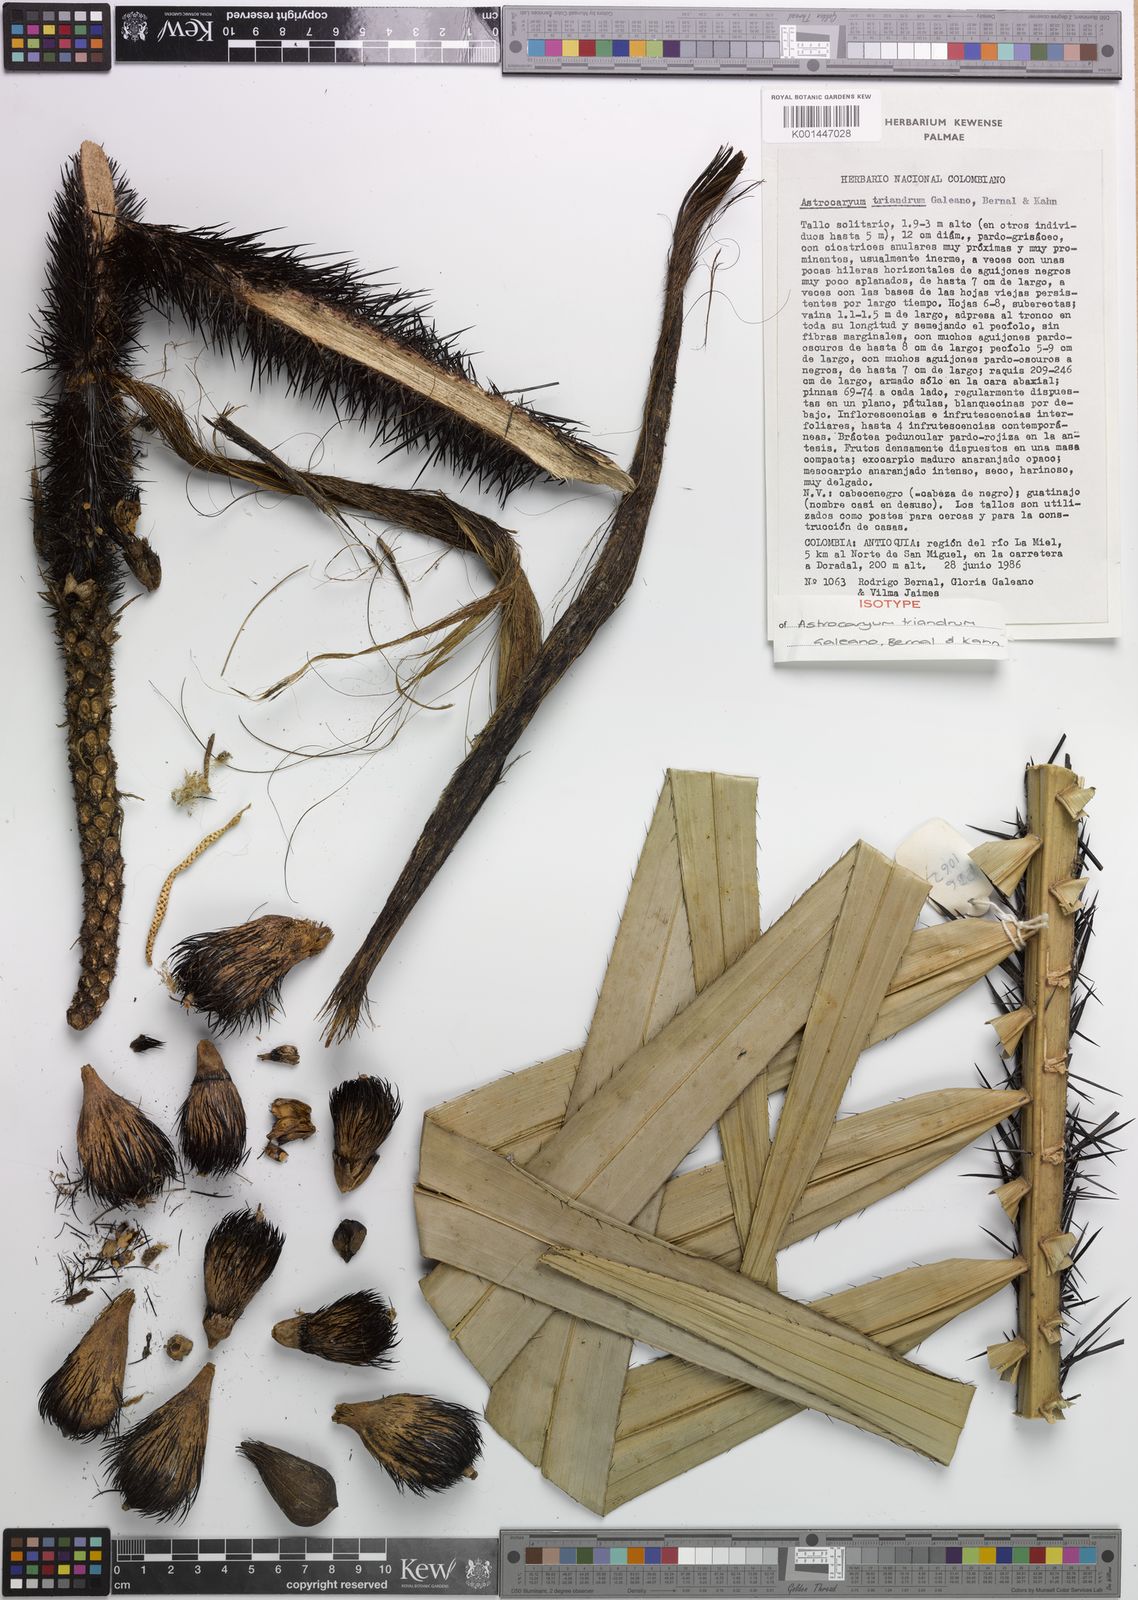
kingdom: Plantae
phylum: Tracheophyta
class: Liliopsida
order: Arecales
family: Arecaceae
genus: Astrocaryum
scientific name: Astrocaryum triandrum
